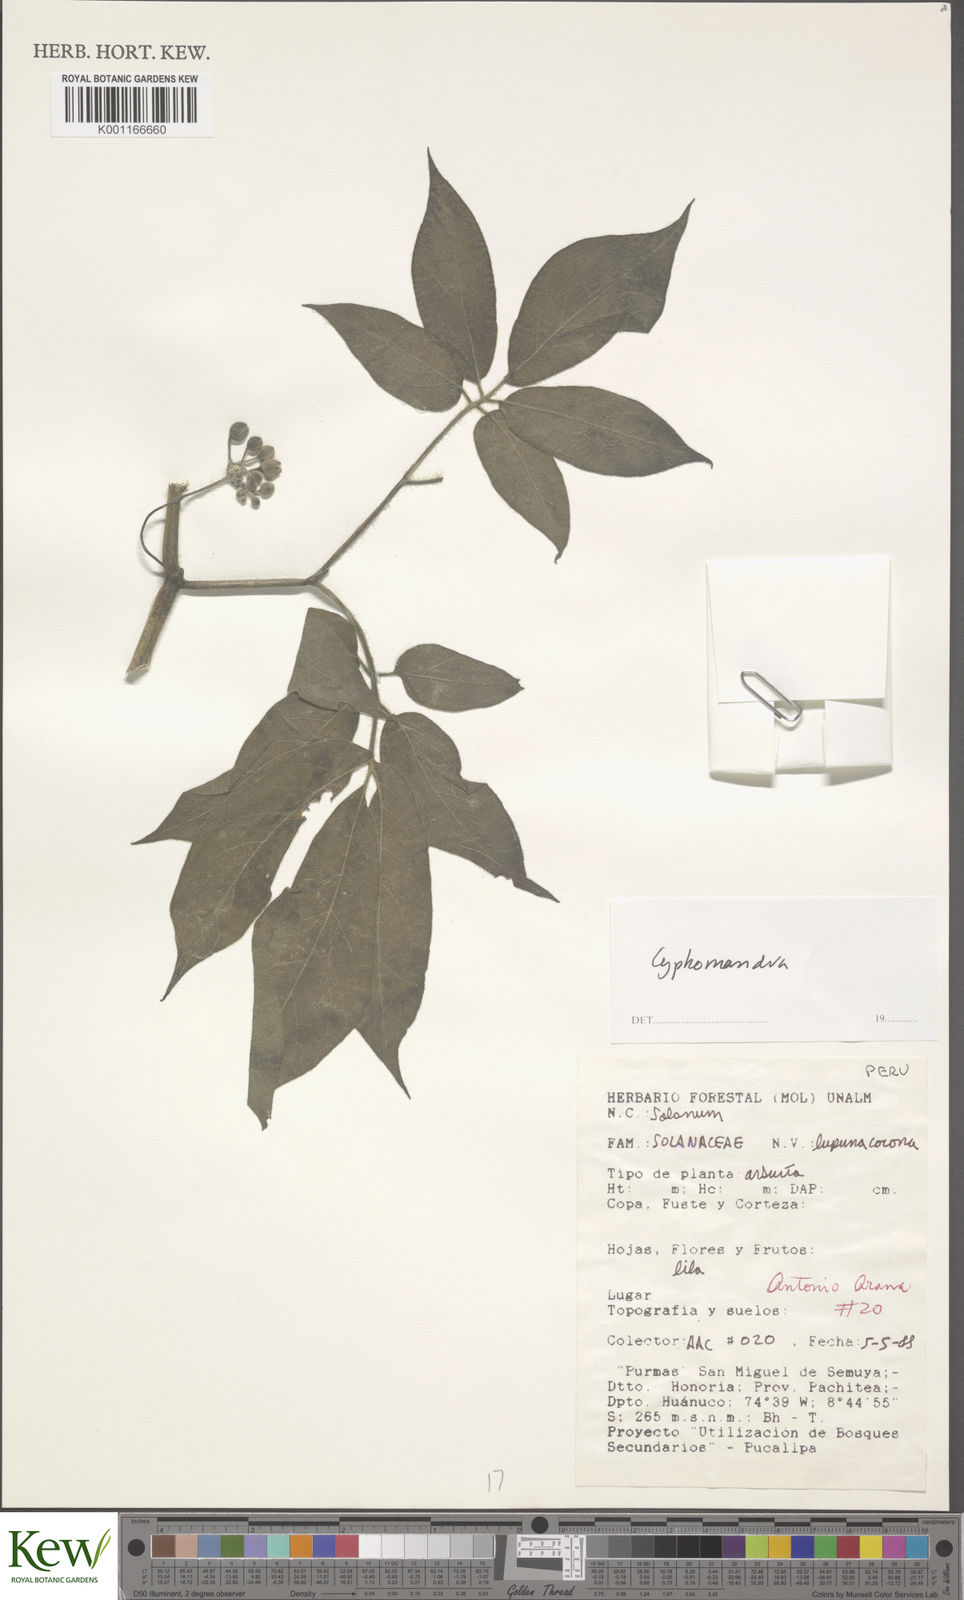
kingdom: Plantae
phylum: Tracheophyta
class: Magnoliopsida
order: Solanales
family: Solanaceae
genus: Solanum
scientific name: Solanum
